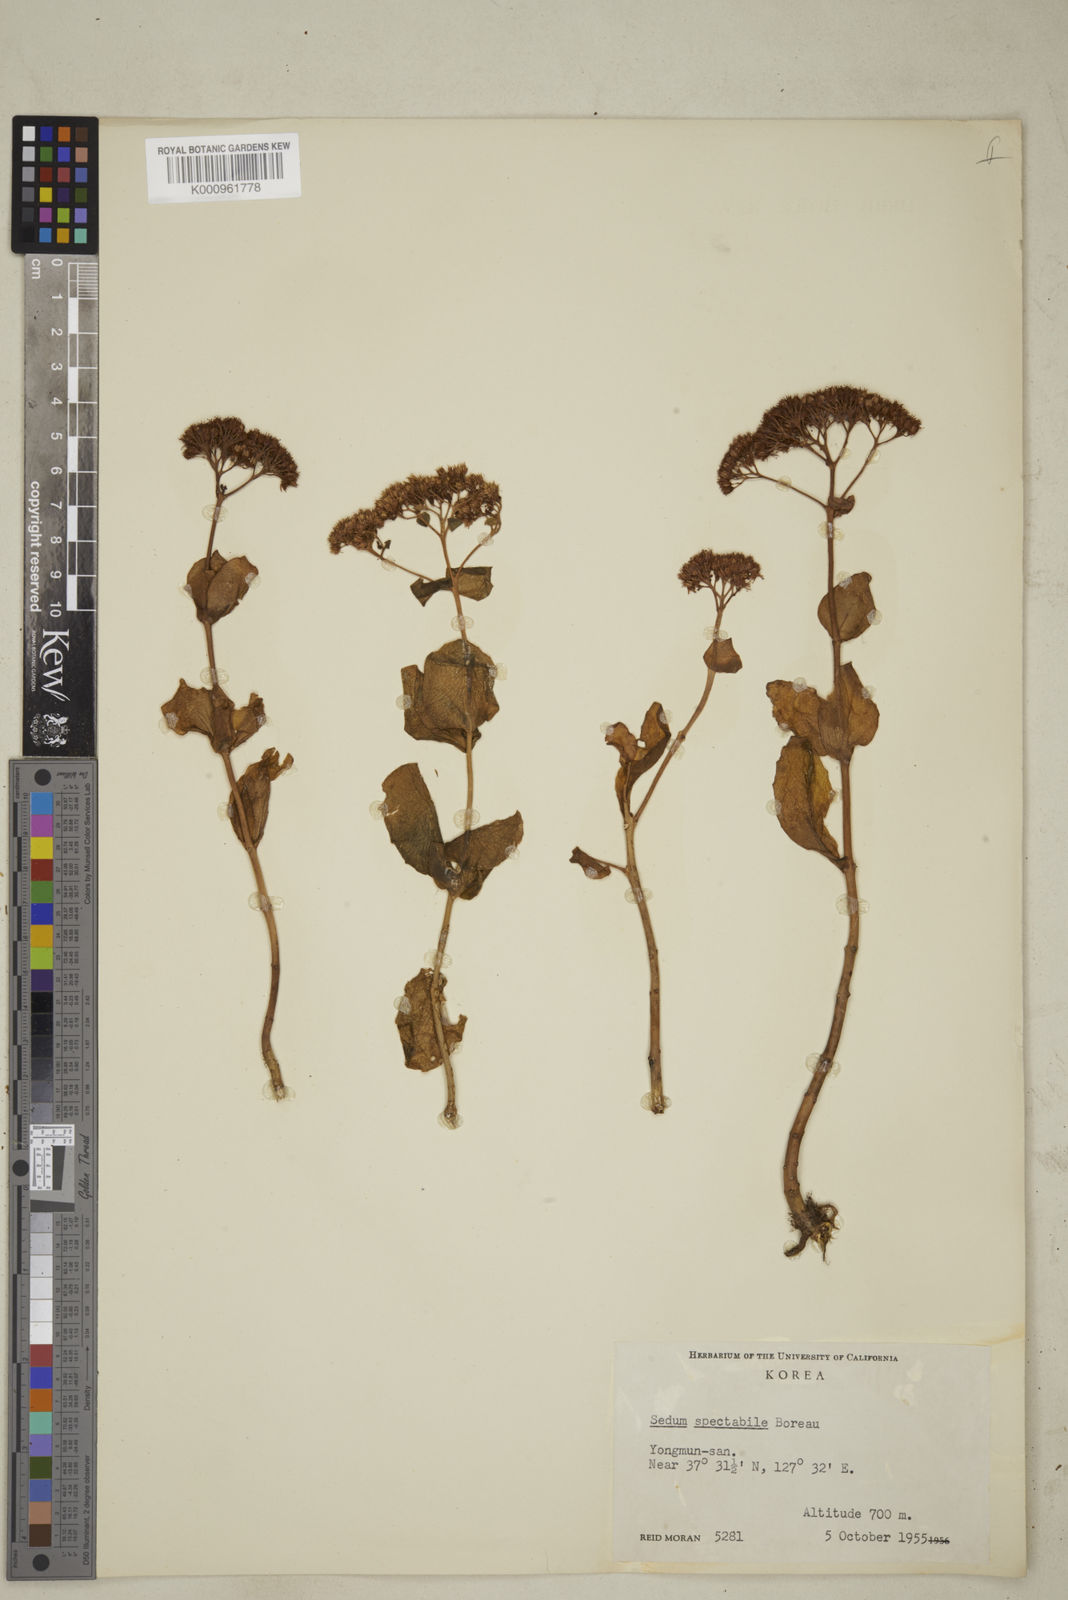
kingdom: Plantae
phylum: Tracheophyta
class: Magnoliopsida
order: Saxifragales
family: Crassulaceae
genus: Hylotelephium
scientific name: Hylotelephium spectabile
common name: Showy stonecrop
